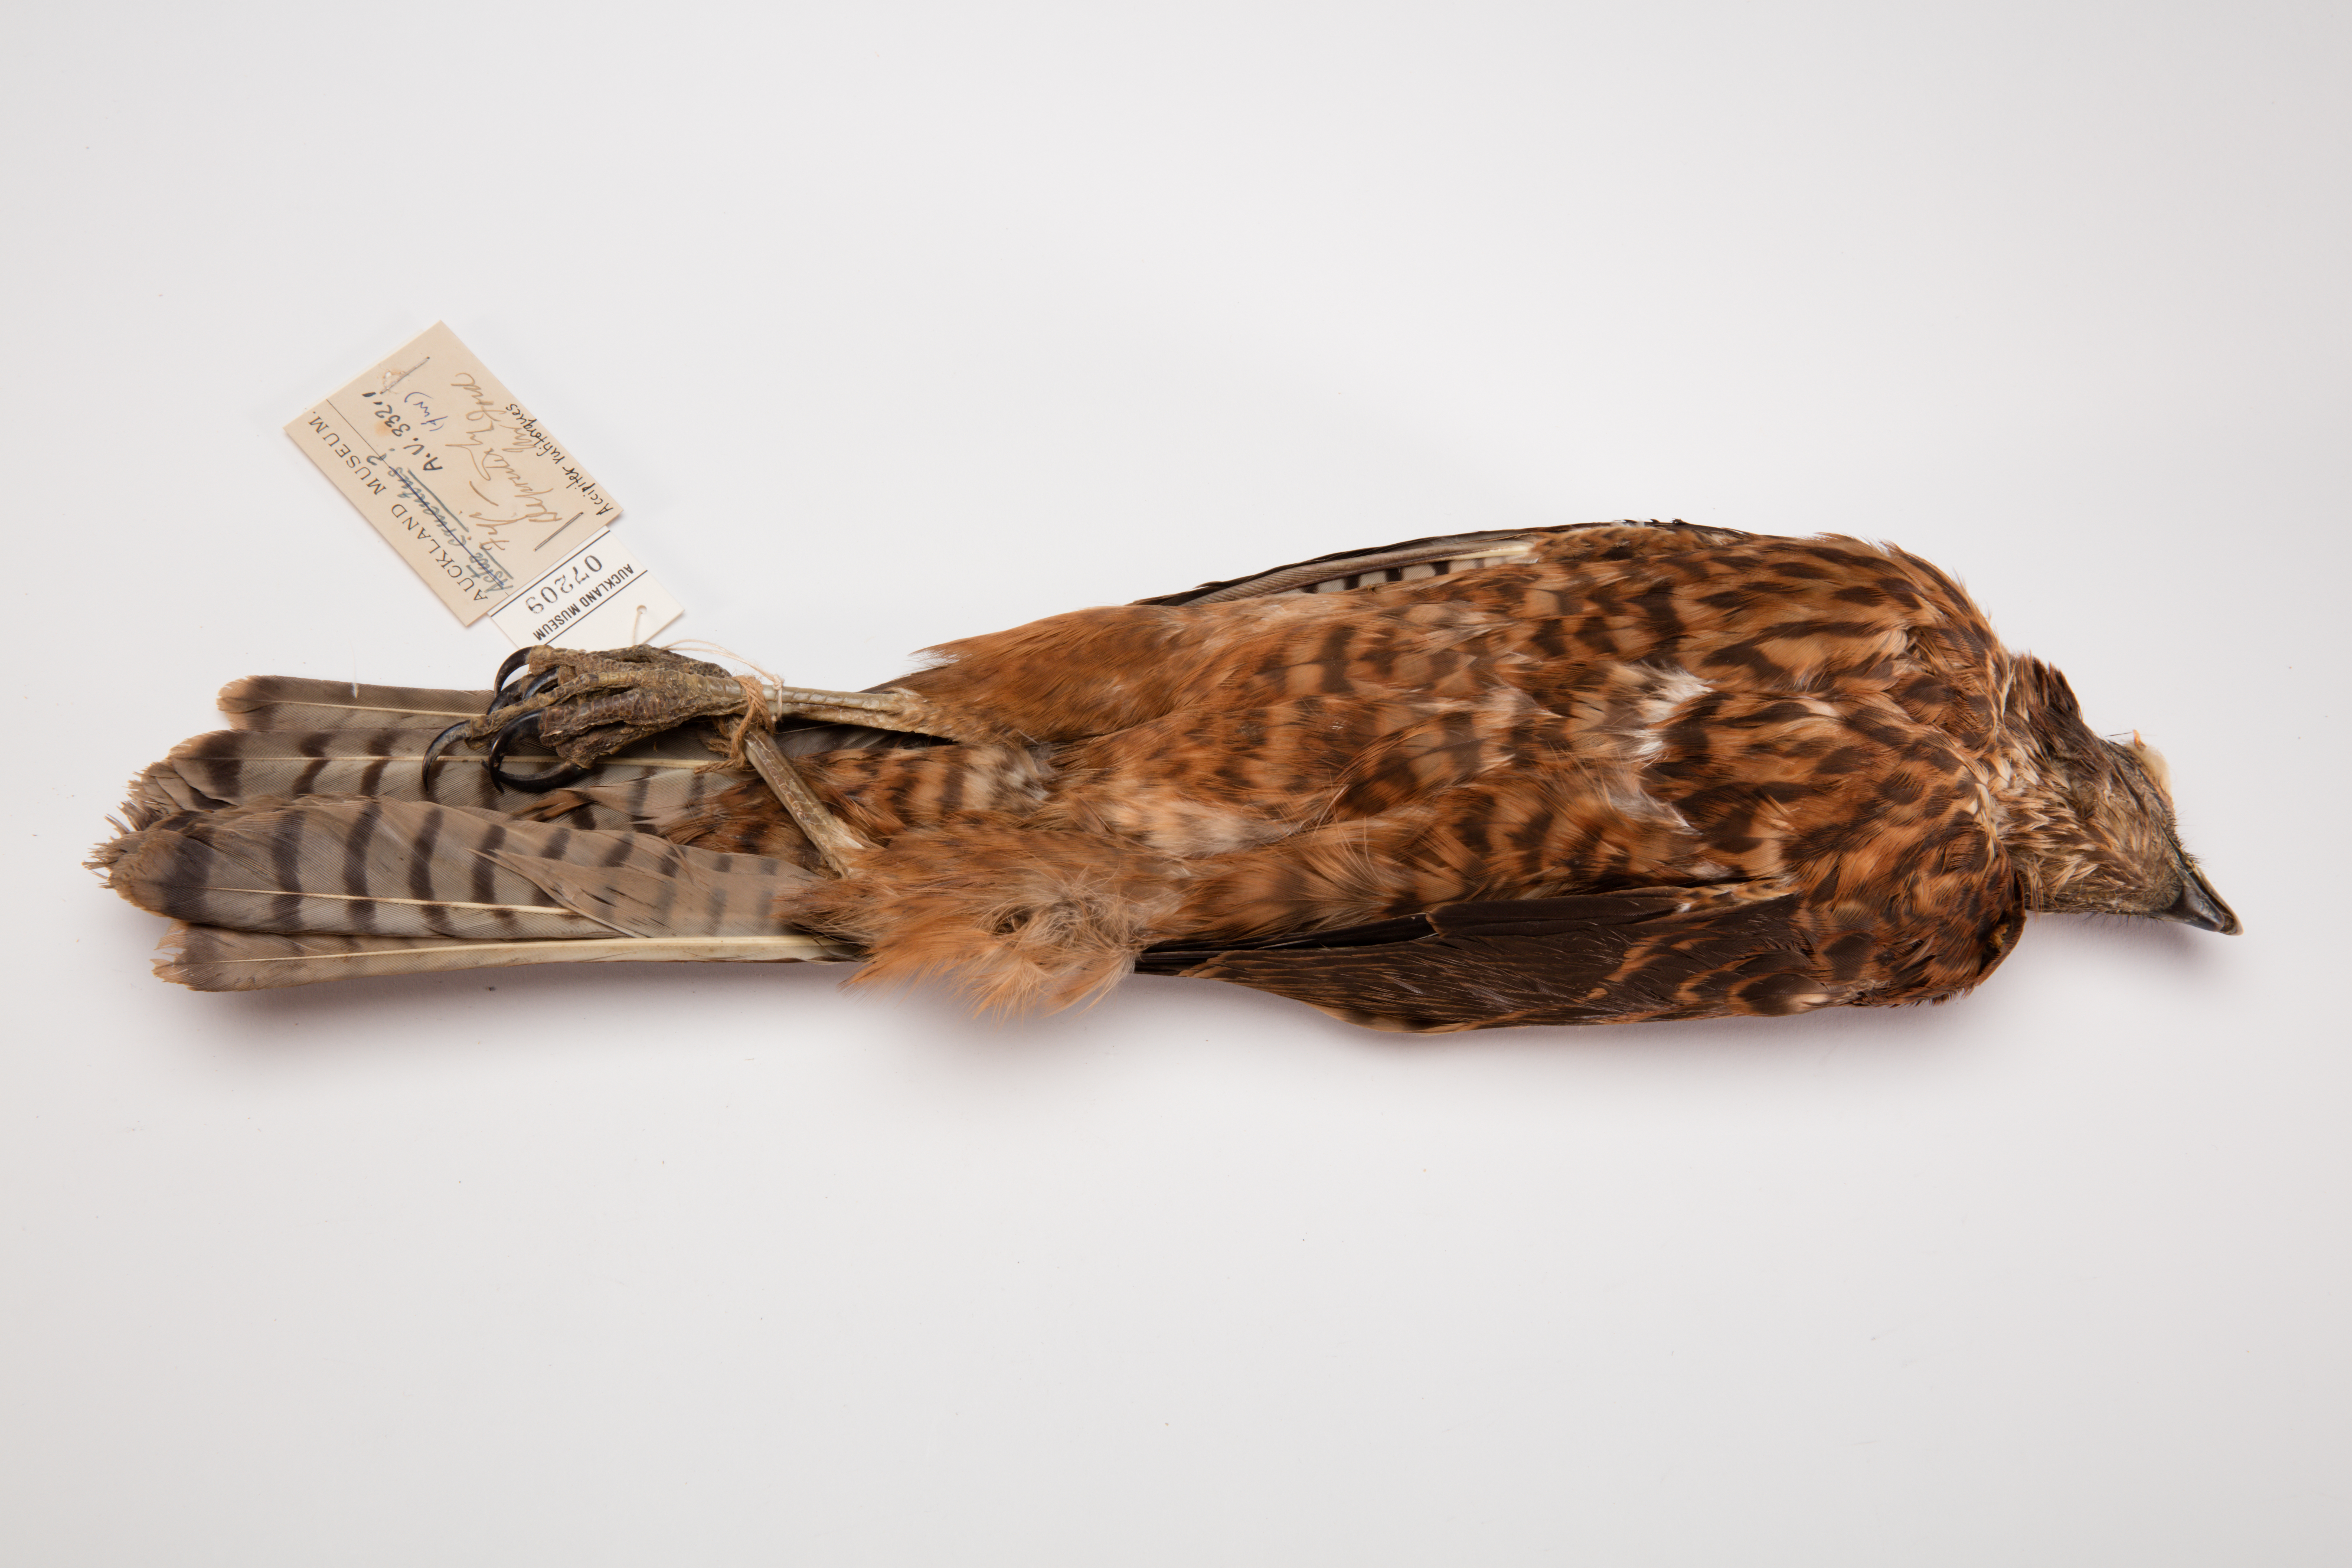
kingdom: Animalia
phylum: Chordata
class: Aves
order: Accipitriformes
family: Accipitridae
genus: Accipiter
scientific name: Accipiter rufitorques
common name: Fiji goshawk
